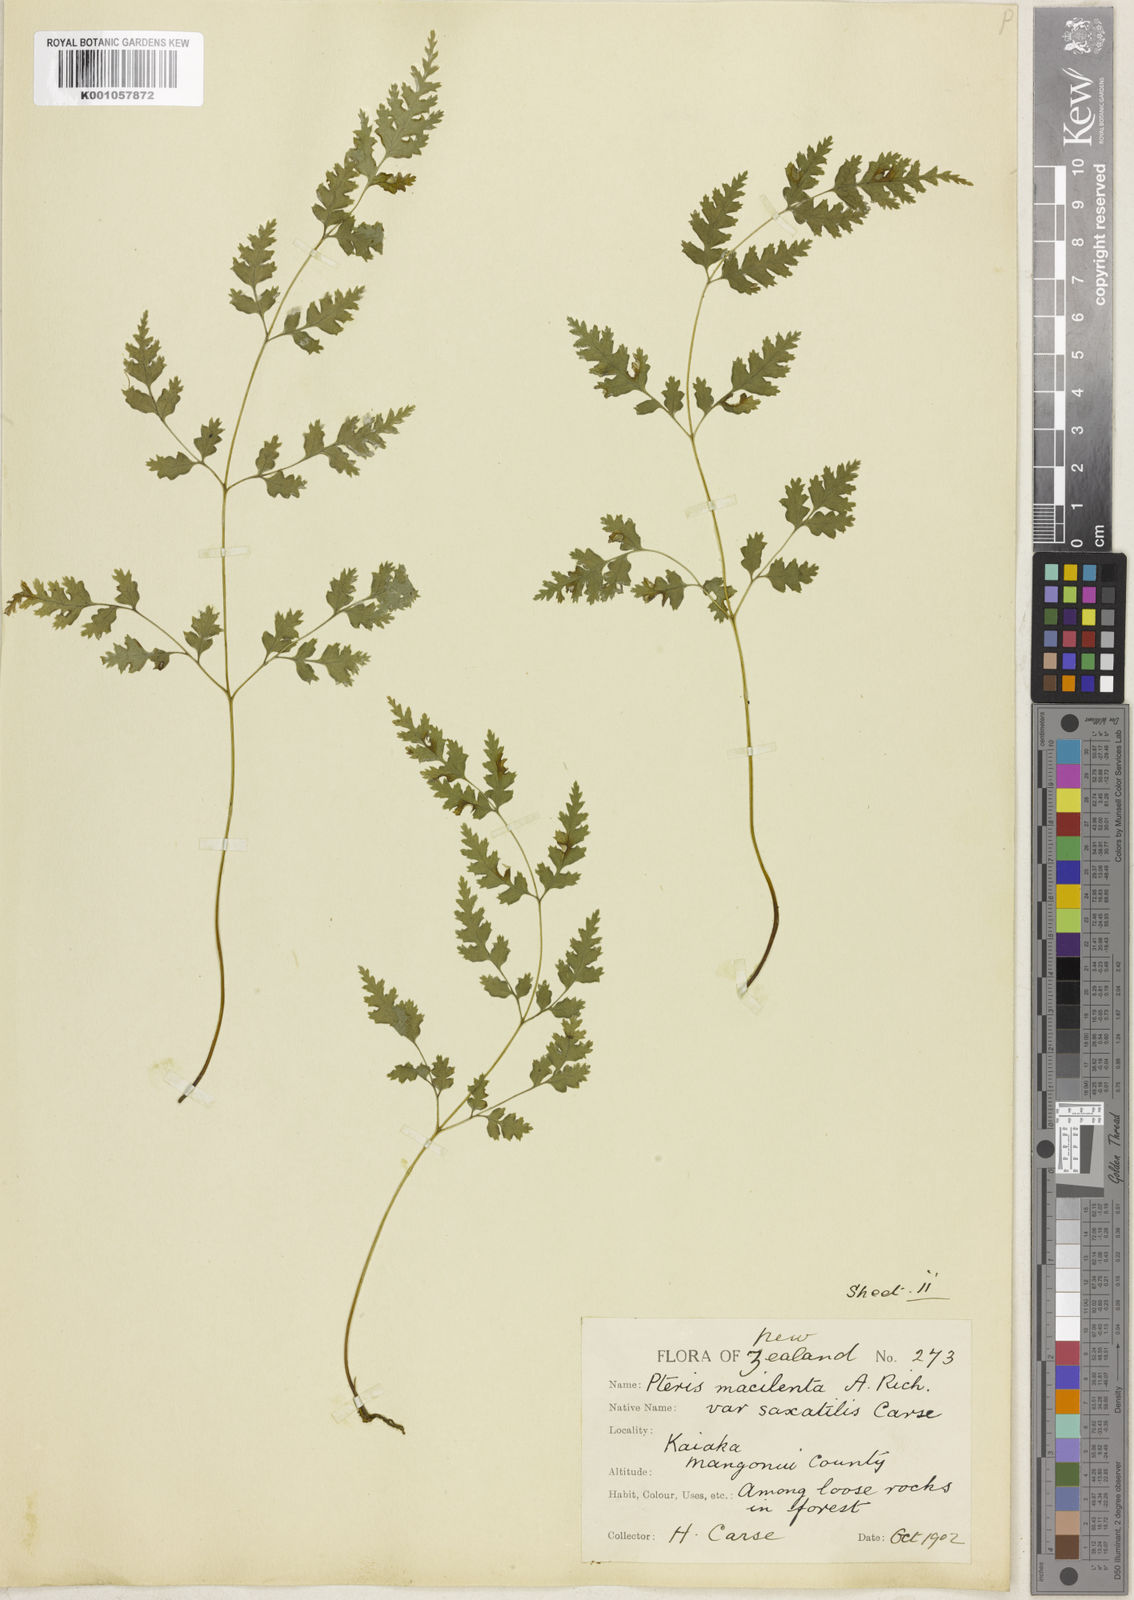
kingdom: Plantae
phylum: Tracheophyta
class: Polypodiopsida
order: Polypodiales
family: Pteridaceae
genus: Pteris
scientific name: Pteris macilenta
